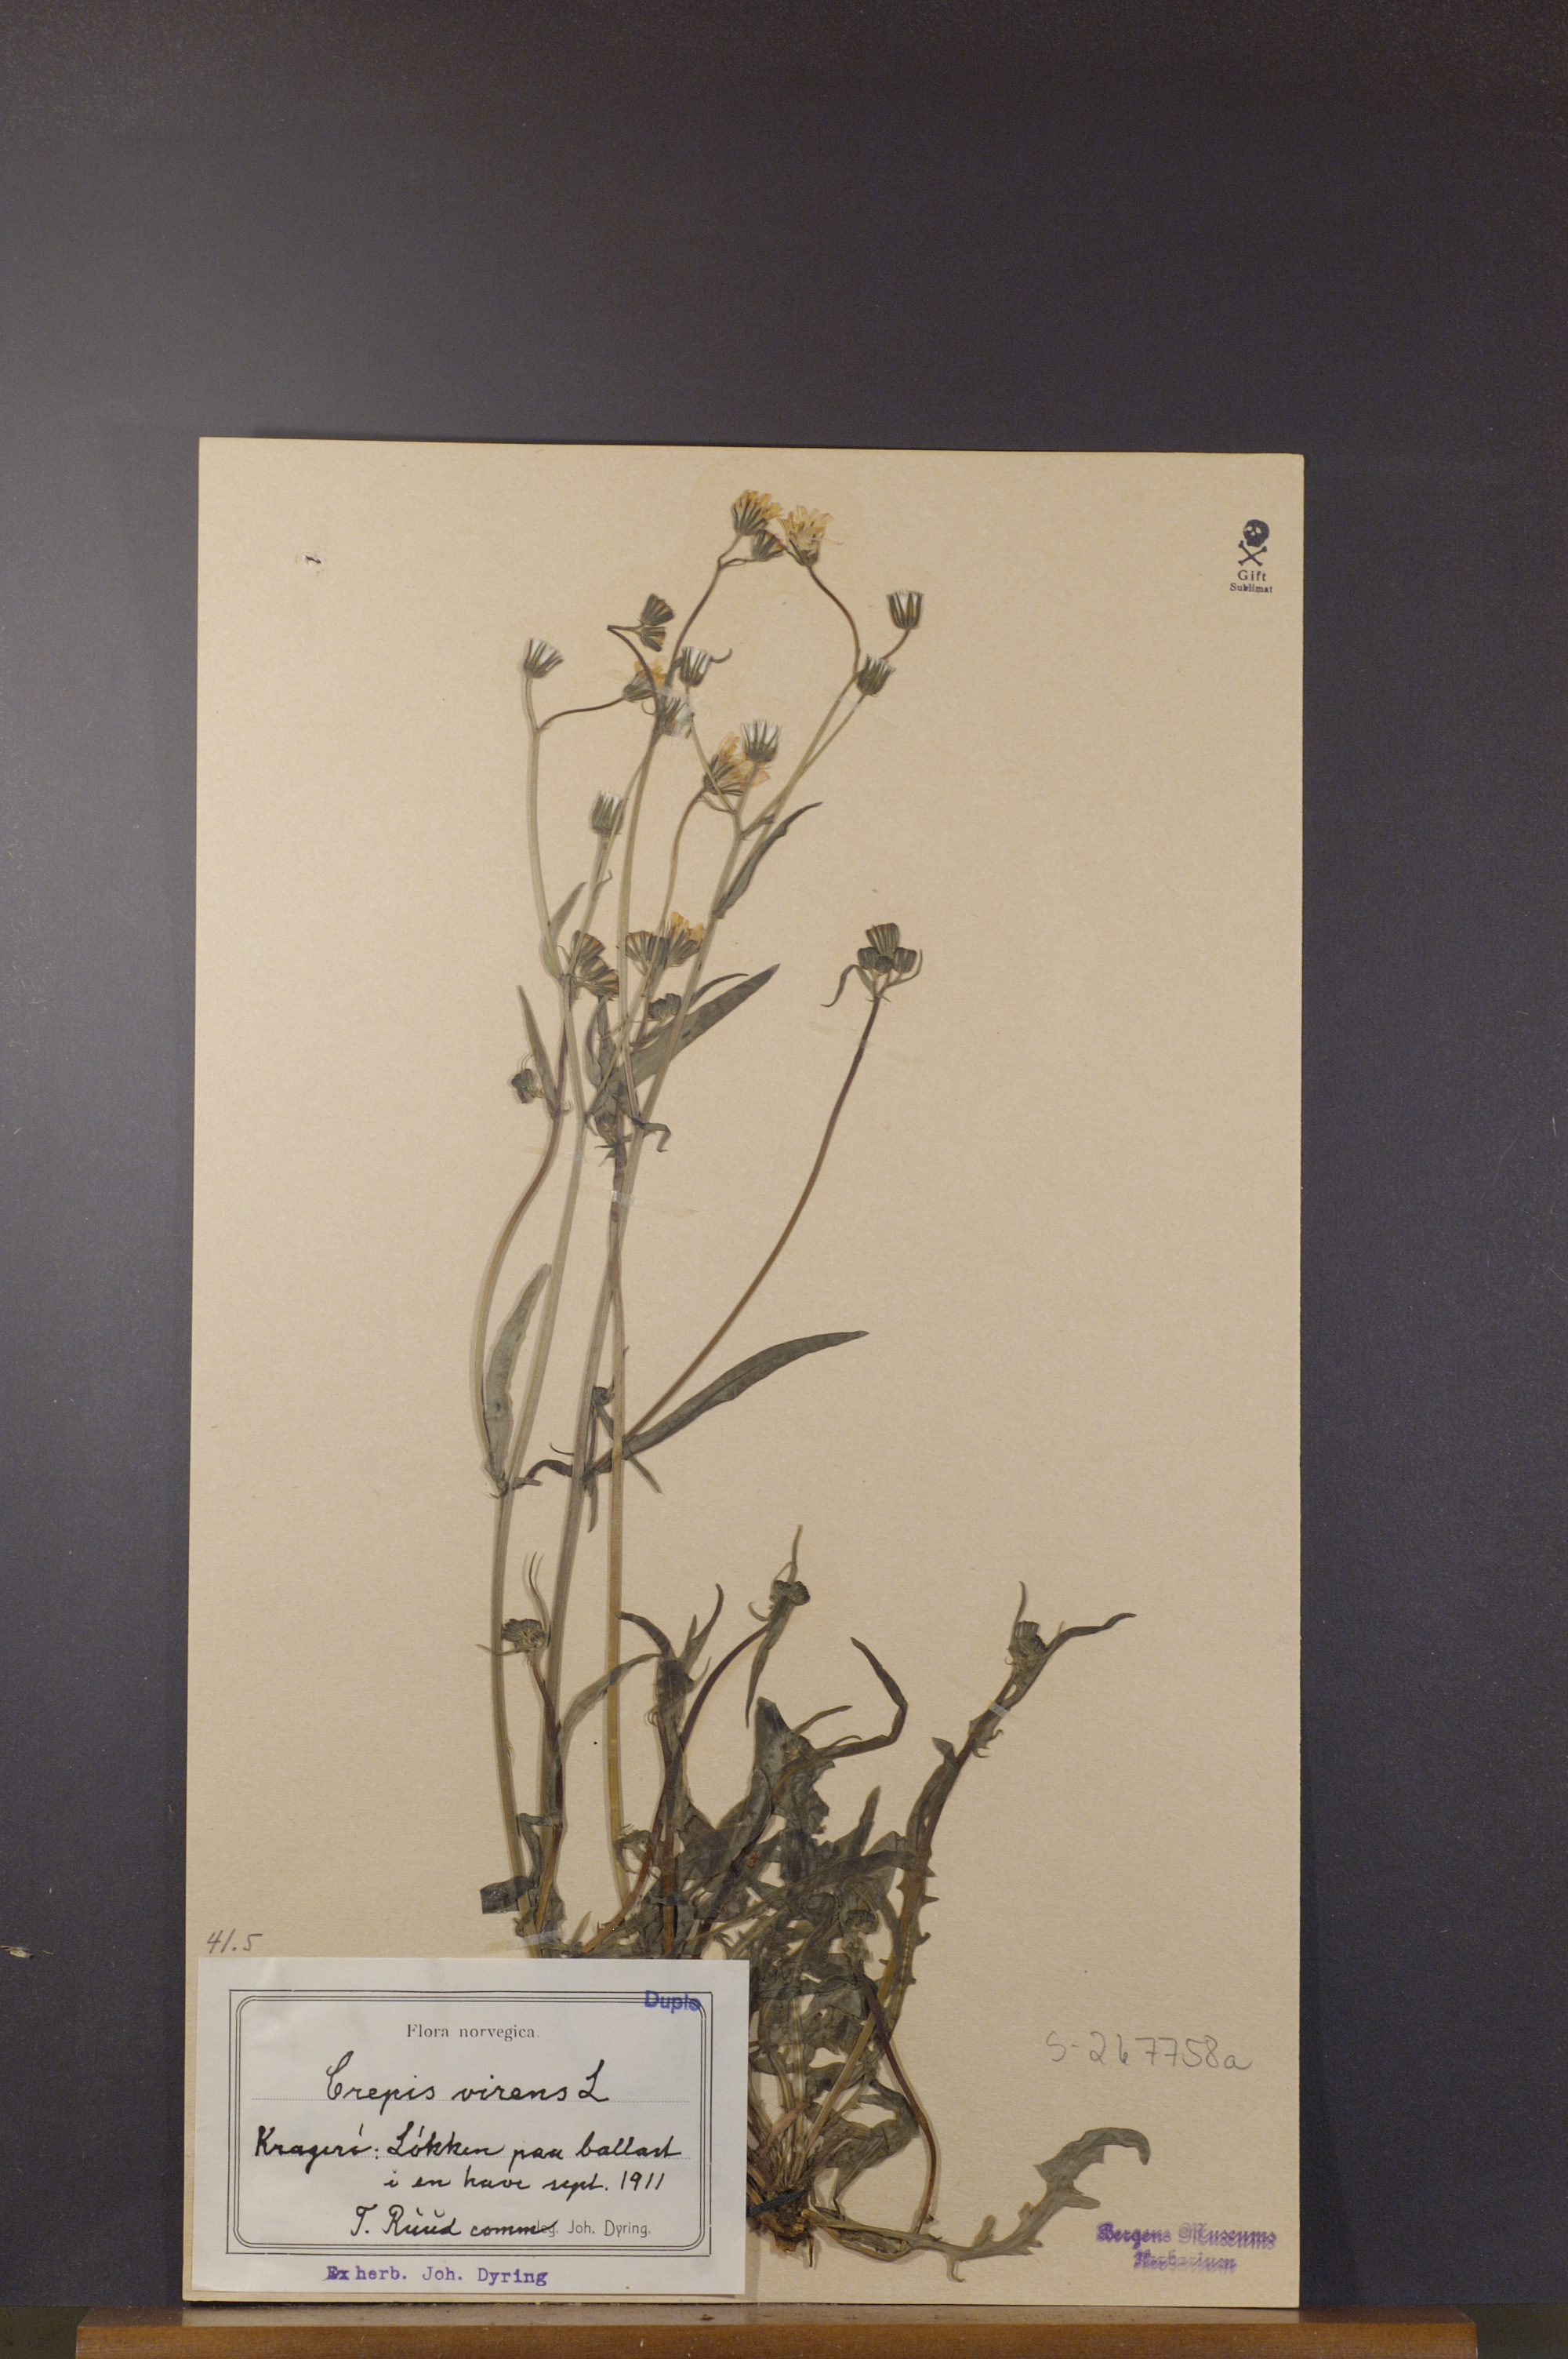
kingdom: Plantae
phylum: Tracheophyta
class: Magnoliopsida
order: Asterales
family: Asteraceae
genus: Crepis
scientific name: Crepis capillaris
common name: Smooth hawksbeard
